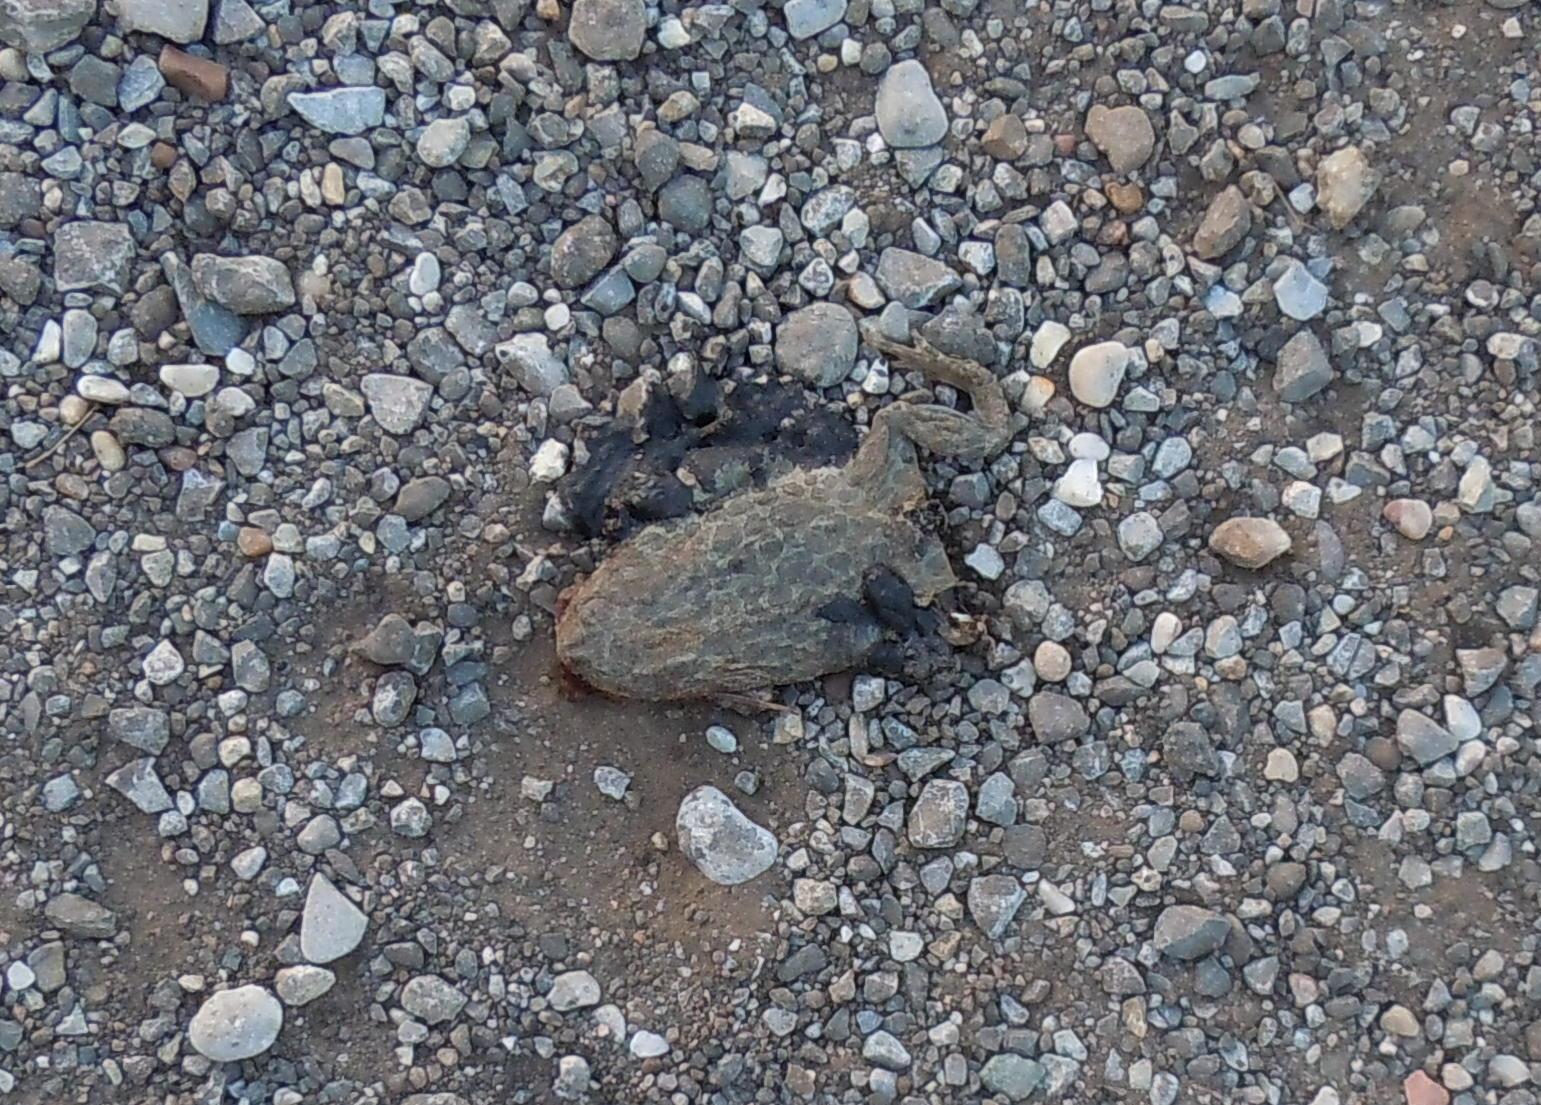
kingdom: Animalia
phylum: Chordata
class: Amphibia
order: Anura
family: Bufonidae
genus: Bufotes
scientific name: Bufotes viridis
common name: European green toad
